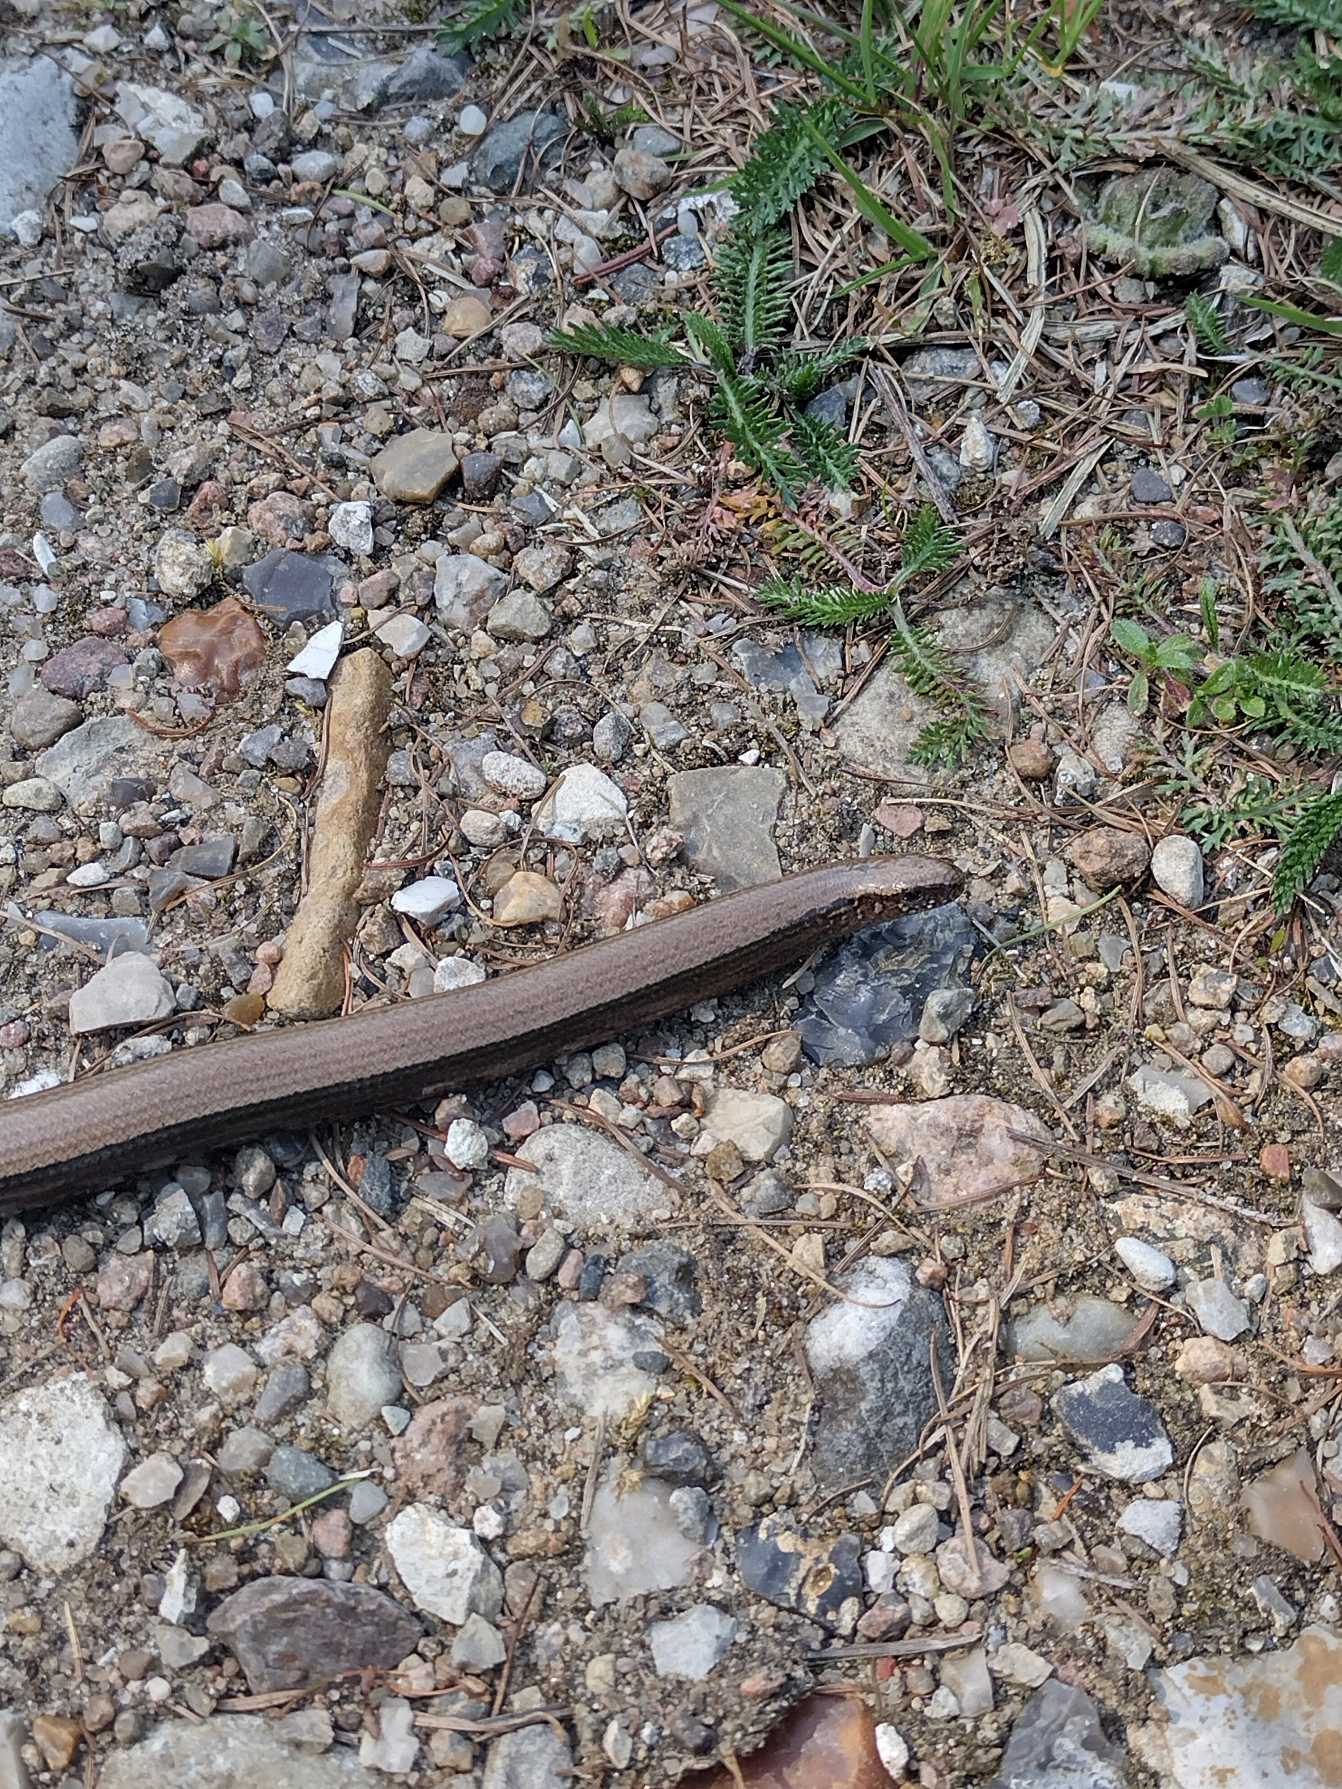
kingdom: Animalia
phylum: Chordata
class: Squamata
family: Anguidae
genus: Anguis
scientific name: Anguis fragilis
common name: Stålorm
